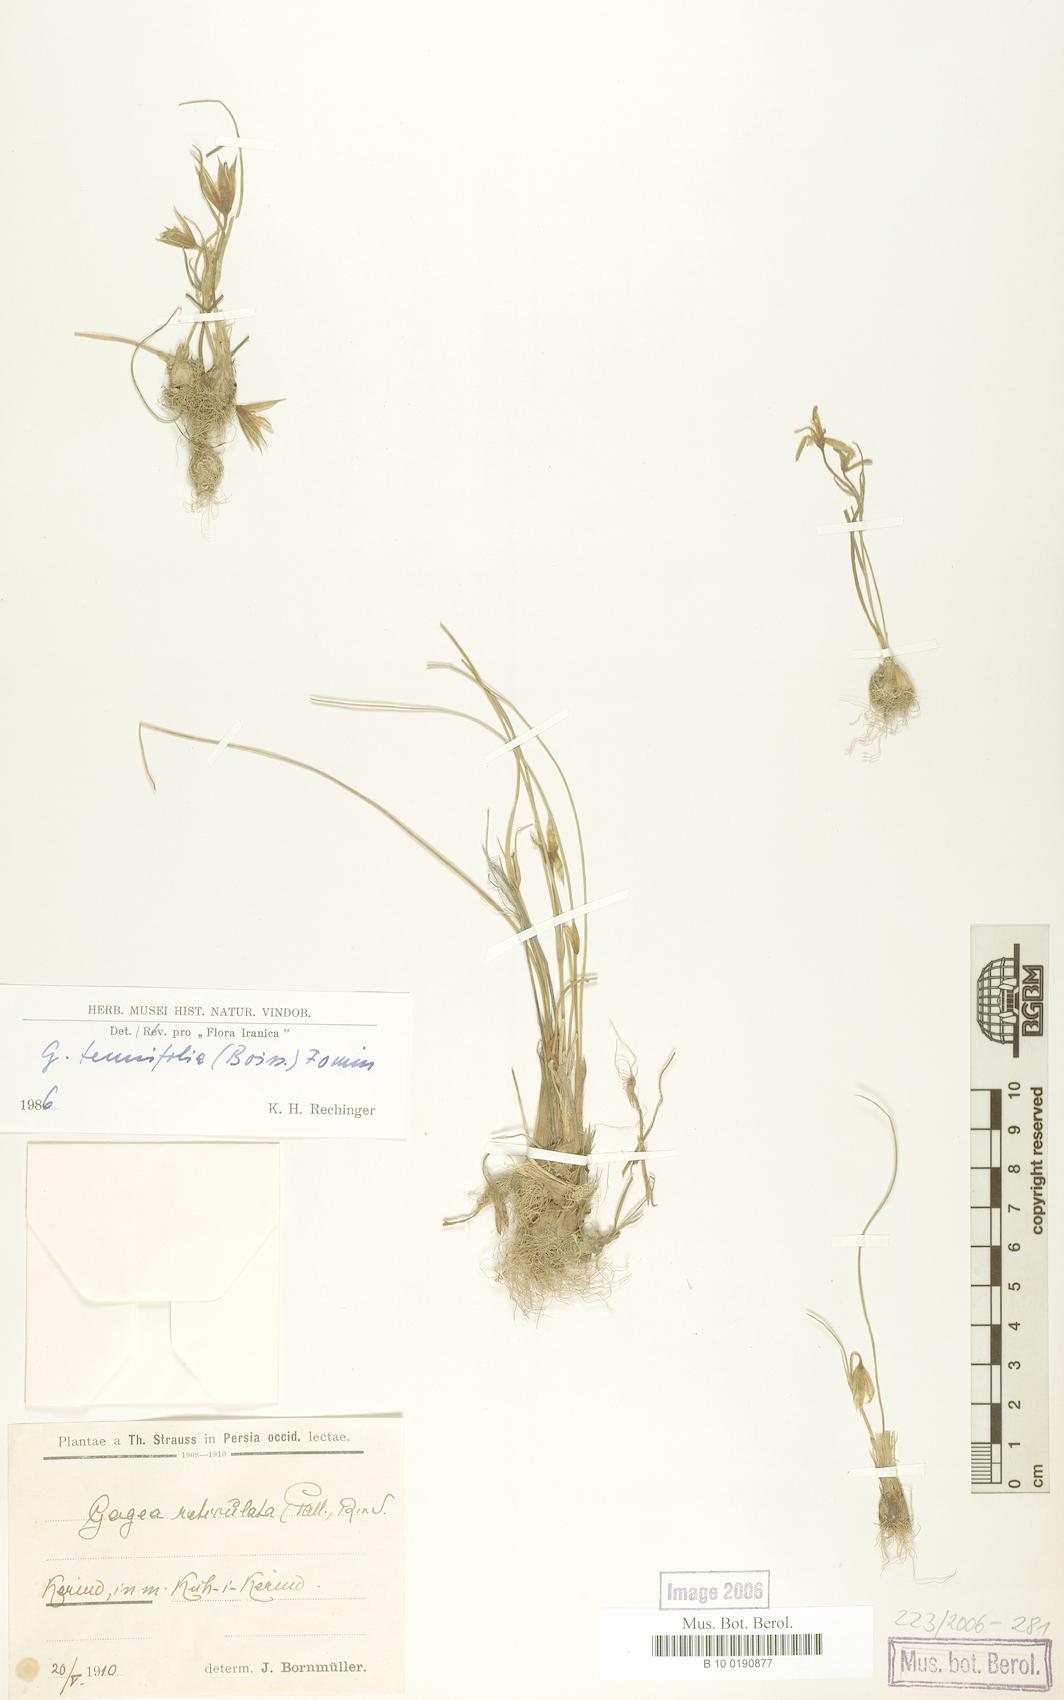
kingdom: Plantae
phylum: Tracheophyta
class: Liliopsida
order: Liliales
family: Liliaceae
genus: Gagea
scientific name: Gagea reticulata
